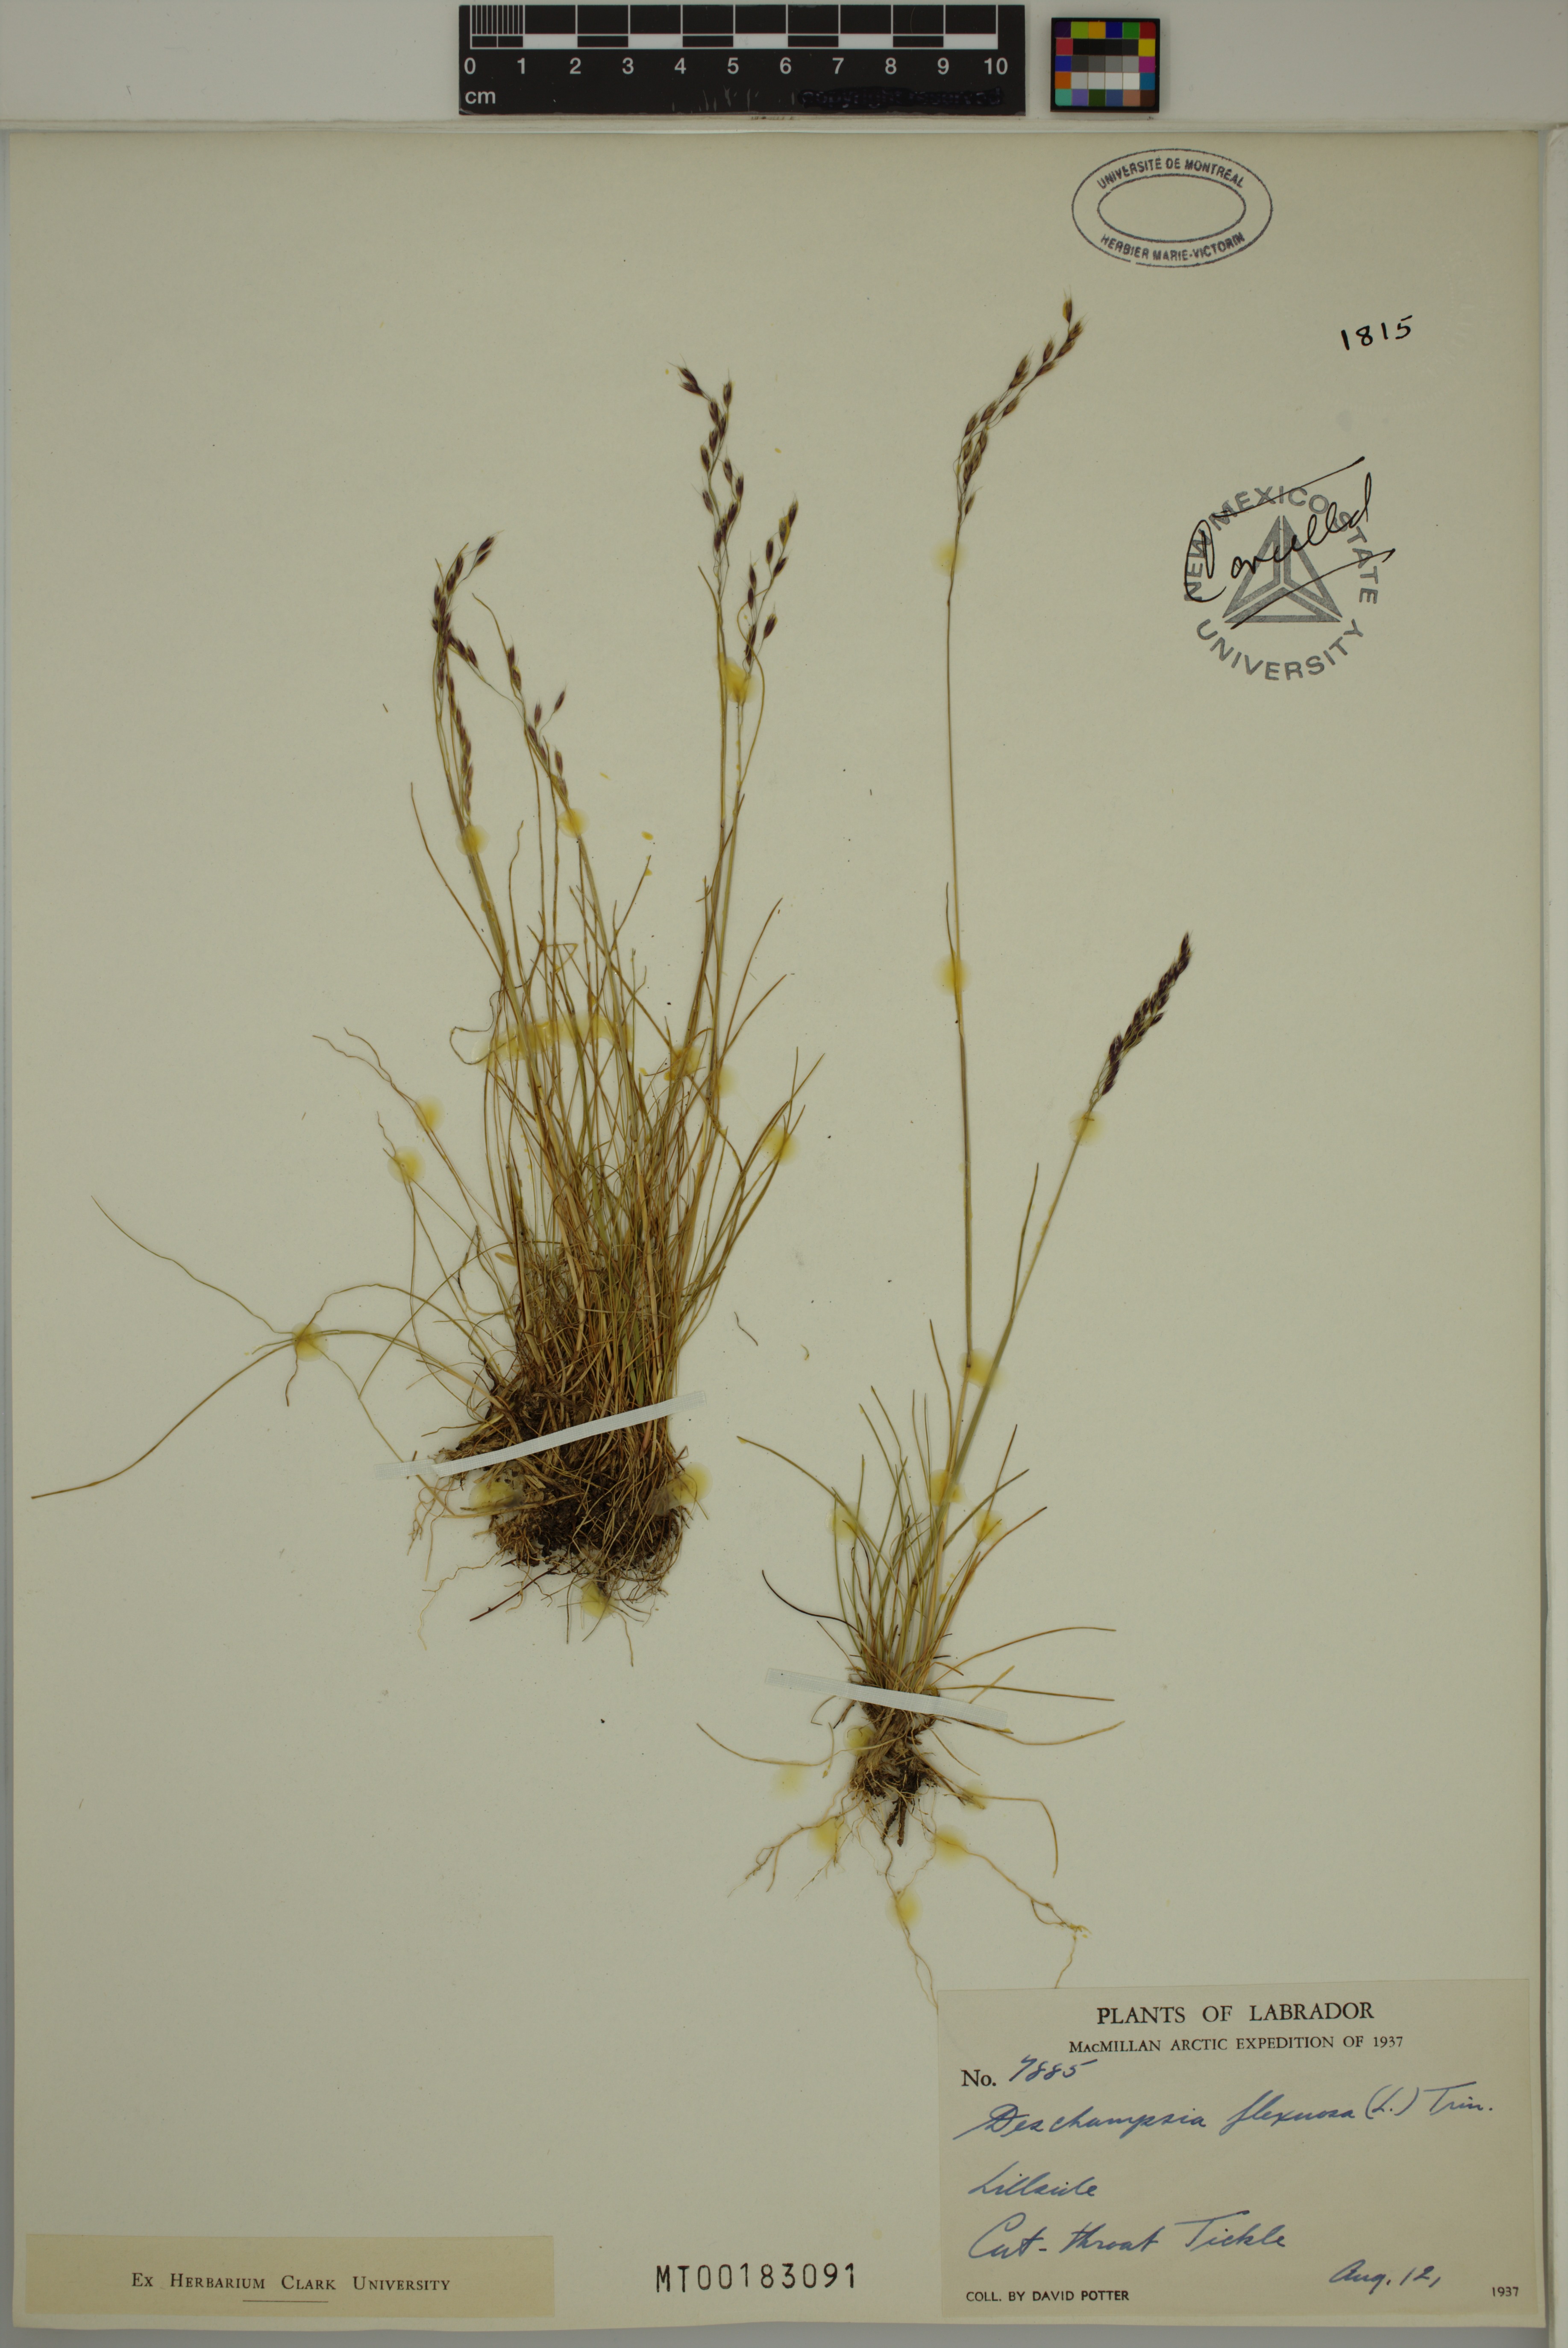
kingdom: Plantae
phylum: Tracheophyta
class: Liliopsida
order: Poales
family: Poaceae
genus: Avenella
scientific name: Avenella flexuosa
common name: Wavy hairgrass
